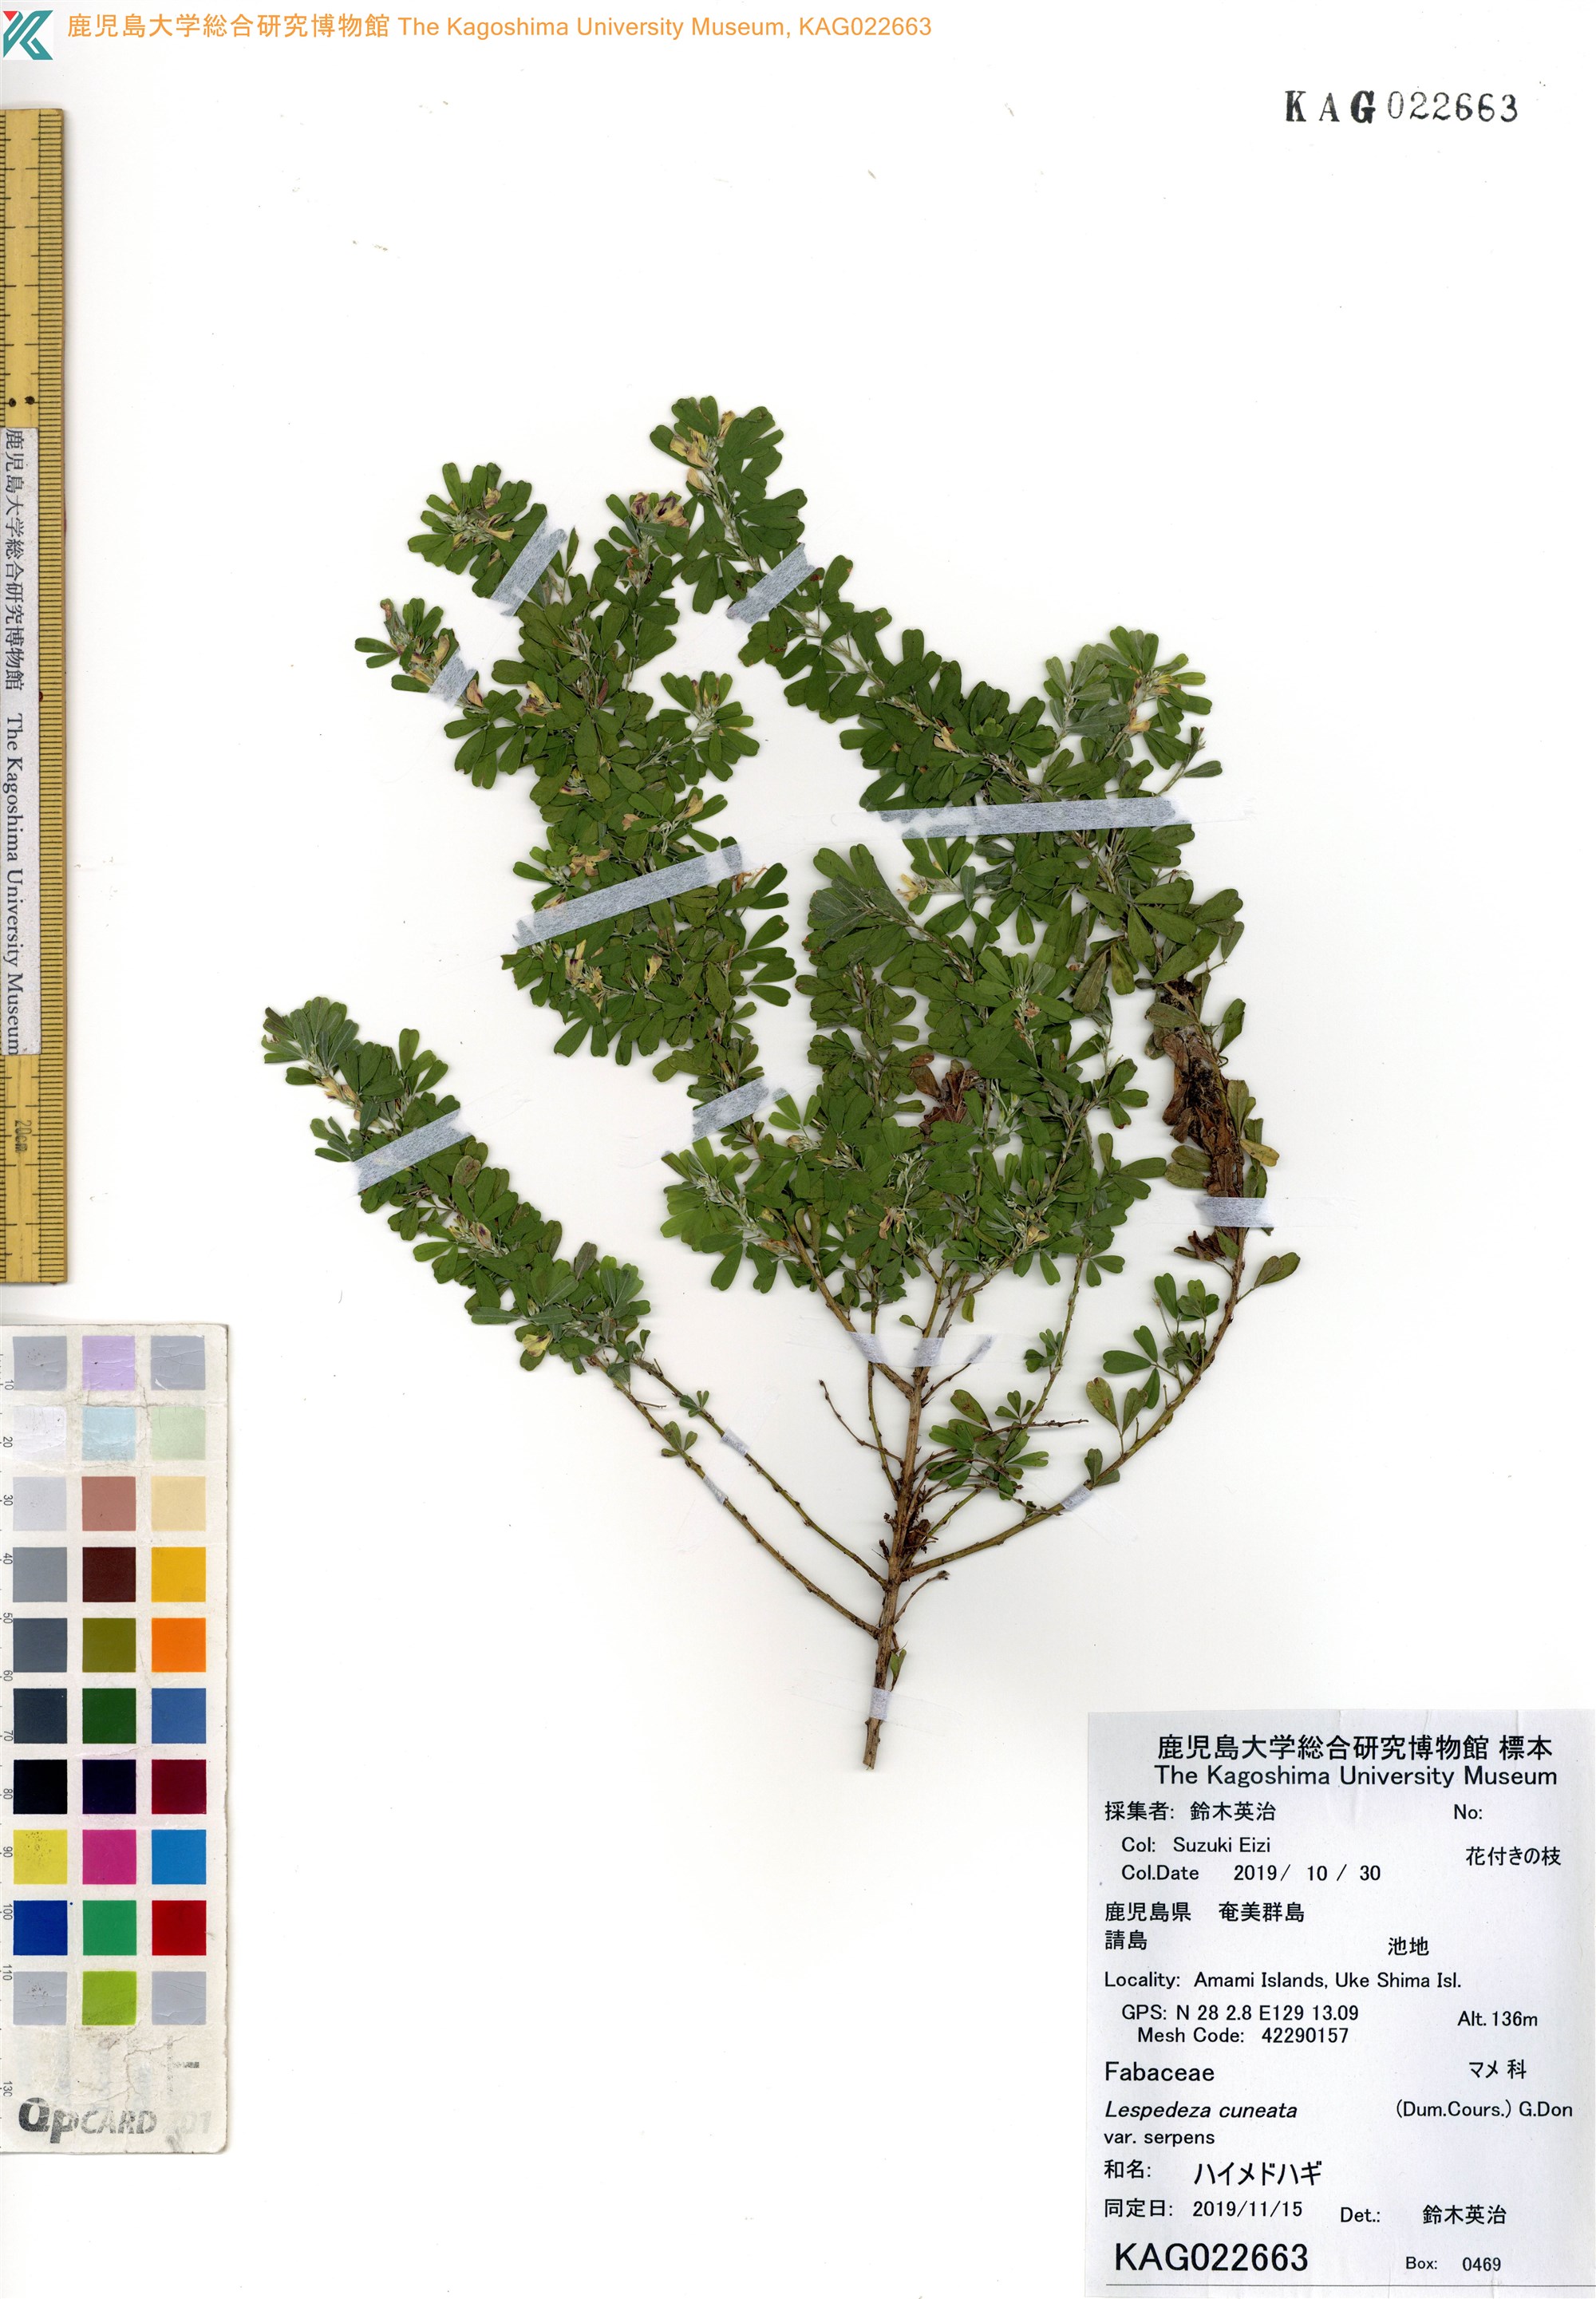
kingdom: Plantae
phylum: Tracheophyta
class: Magnoliopsida
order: Fabales
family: Fabaceae
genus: Lespedeza
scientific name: Lespedeza cuneata
